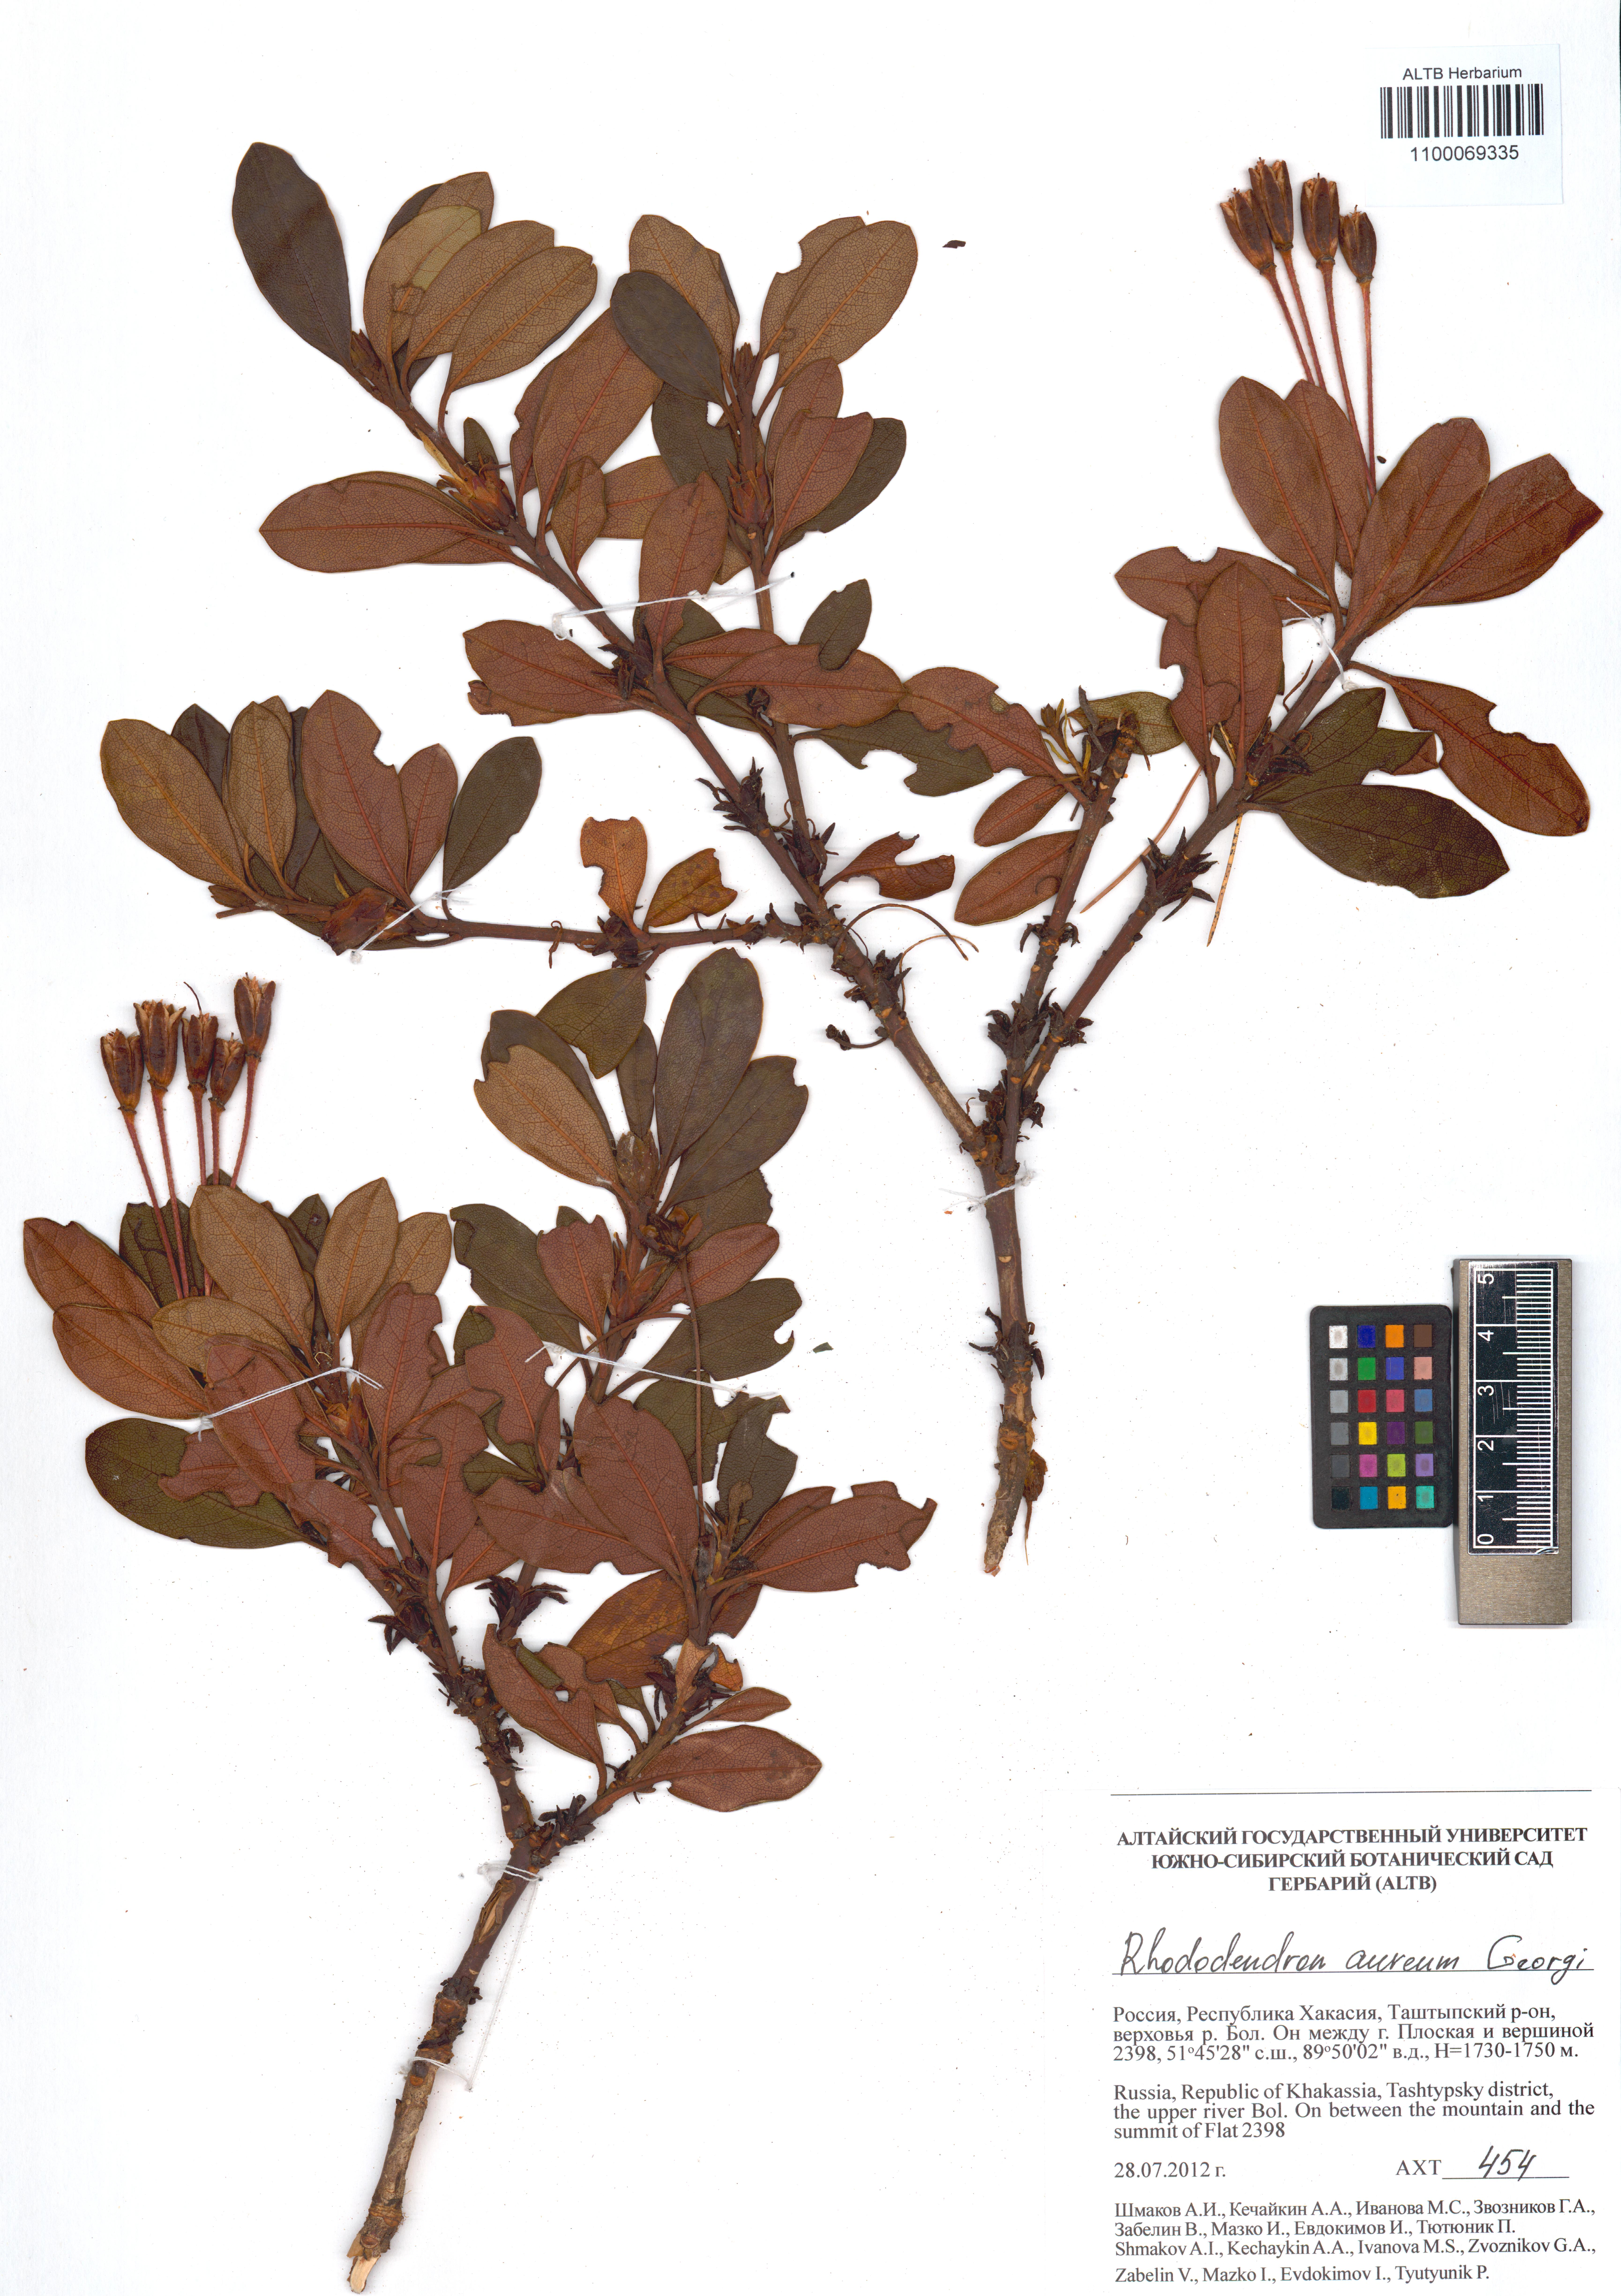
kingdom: Plantae
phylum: Tracheophyta
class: Magnoliopsida
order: Ericales
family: Ericaceae
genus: Rhododendron
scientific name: Rhododendron aureum
